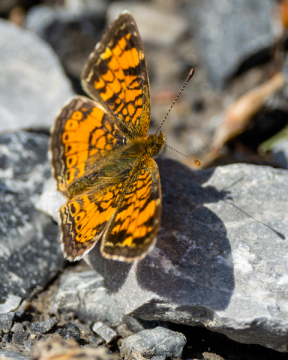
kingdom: Animalia
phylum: Arthropoda
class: Insecta
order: Lepidoptera
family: Nymphalidae
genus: Phyciodes
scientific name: Phyciodes tharos
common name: Northern Crescent
